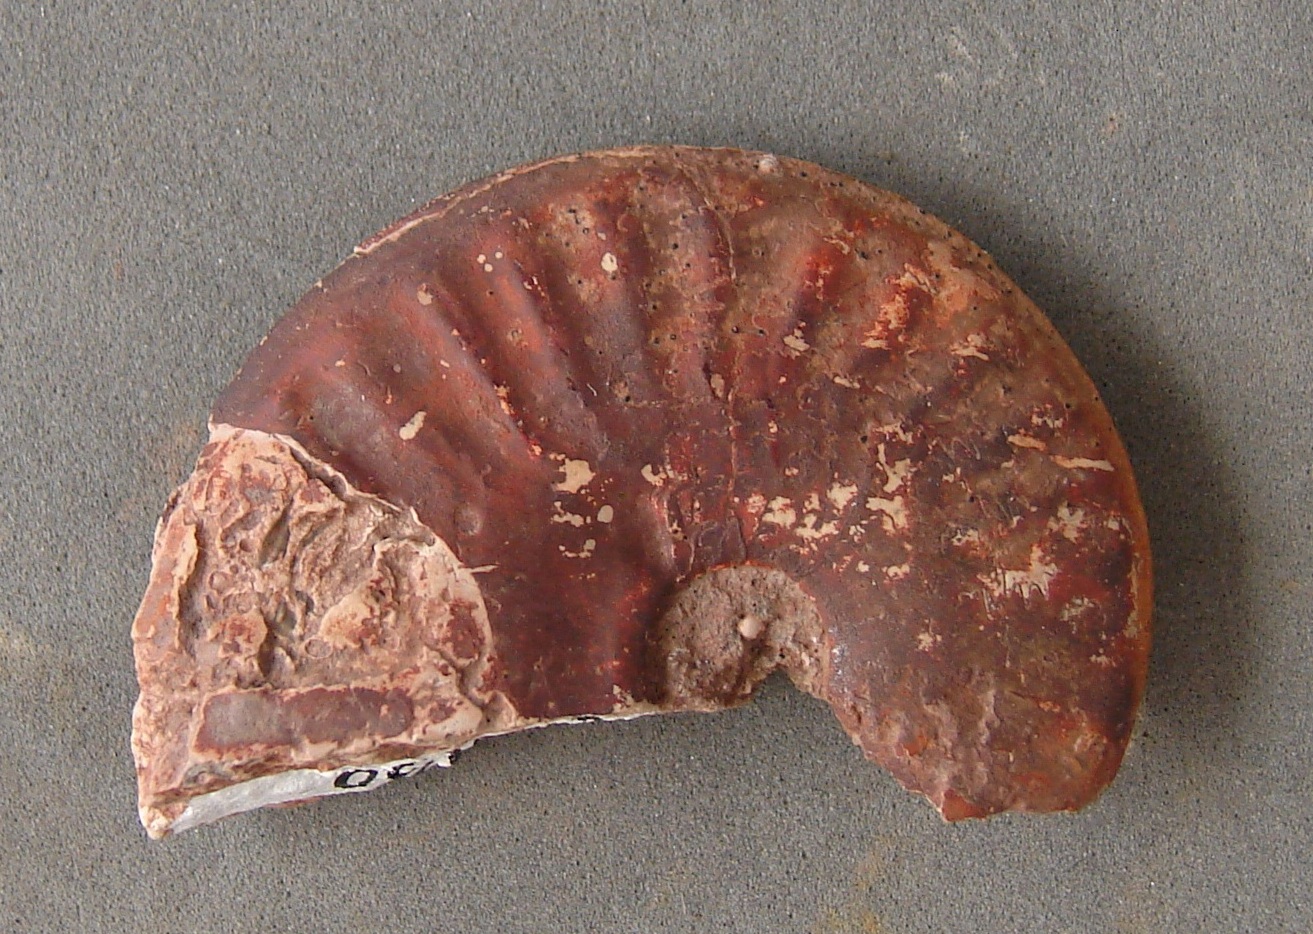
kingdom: Animalia
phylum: Mollusca
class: Cephalopoda
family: Hildoceratidae
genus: Pseudolioceras
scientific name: Pseudolioceras beyrichi
